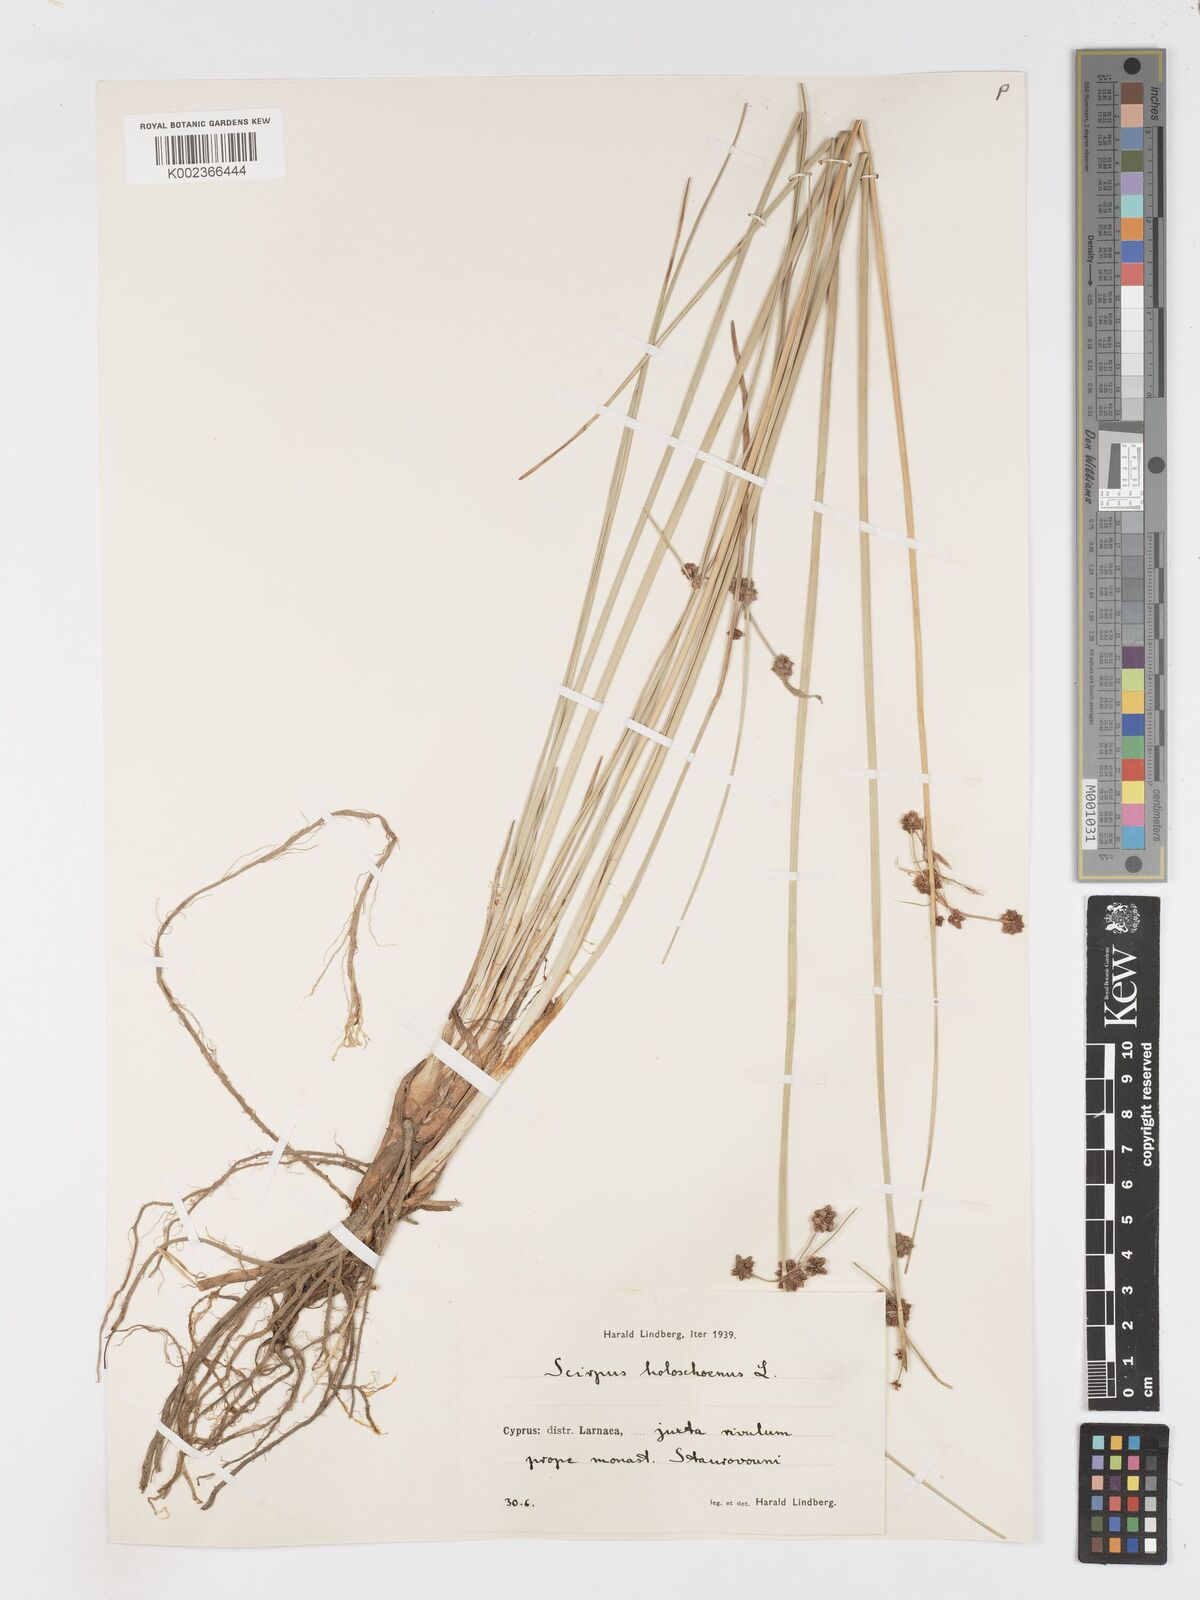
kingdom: Plantae
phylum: Tracheophyta
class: Liliopsida
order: Poales
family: Cyperaceae
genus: Scirpoides
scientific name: Scirpoides holoschoenus
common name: Round-headed club-rush
